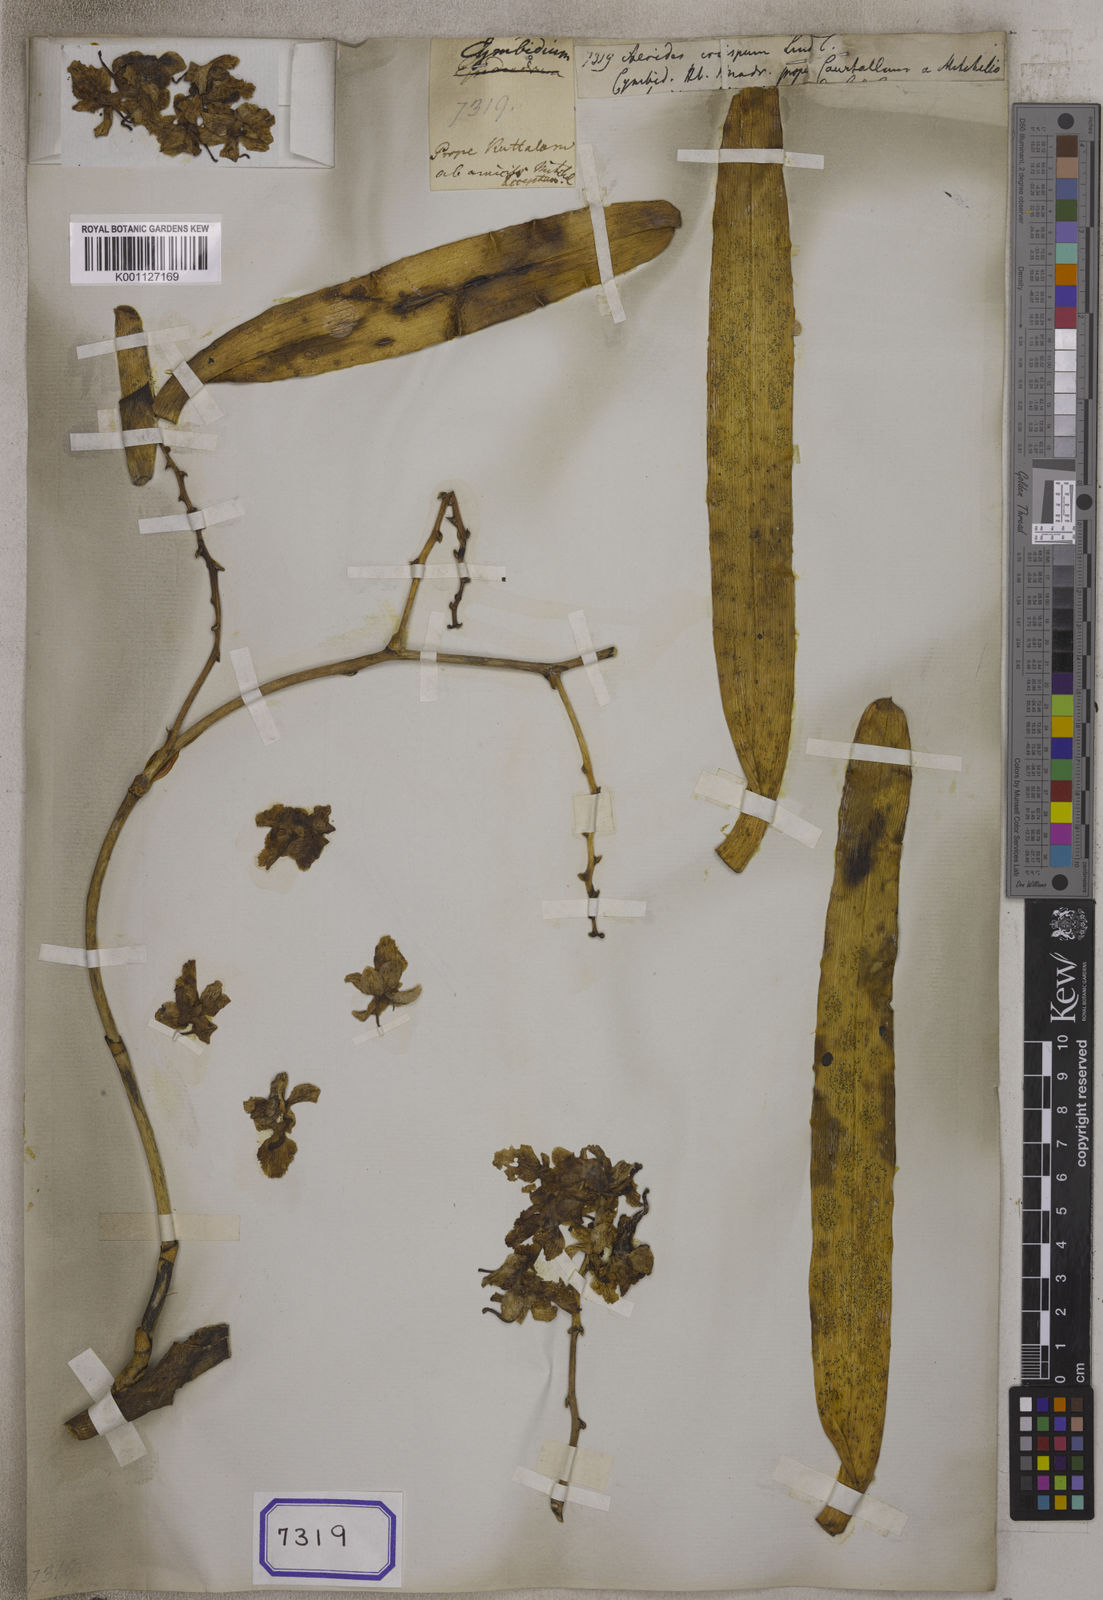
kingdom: Plantae
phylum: Tracheophyta
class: Liliopsida
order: Asparagales
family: Orchidaceae
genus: Aerides
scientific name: Aerides crispa
